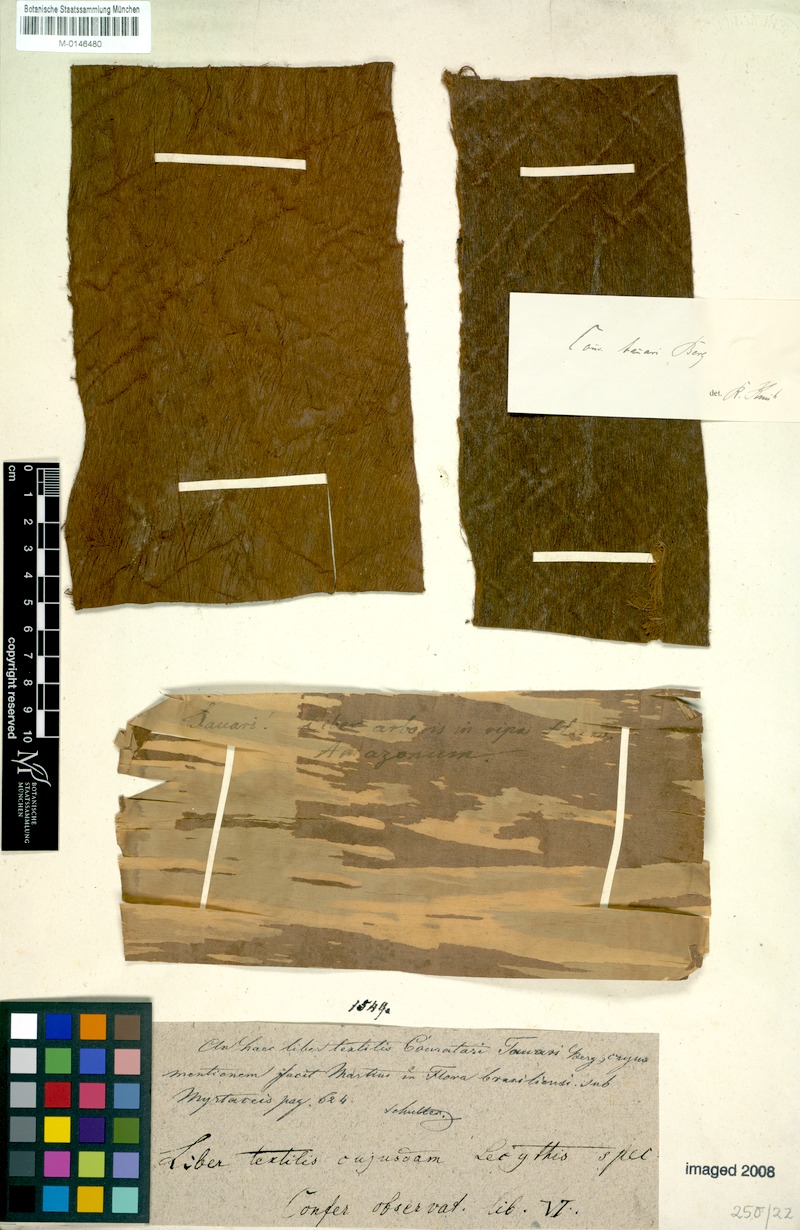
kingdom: Plantae
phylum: Tracheophyta
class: Magnoliopsida
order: Ericales
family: Lecythidaceae
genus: Couratari
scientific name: Couratari tauari
